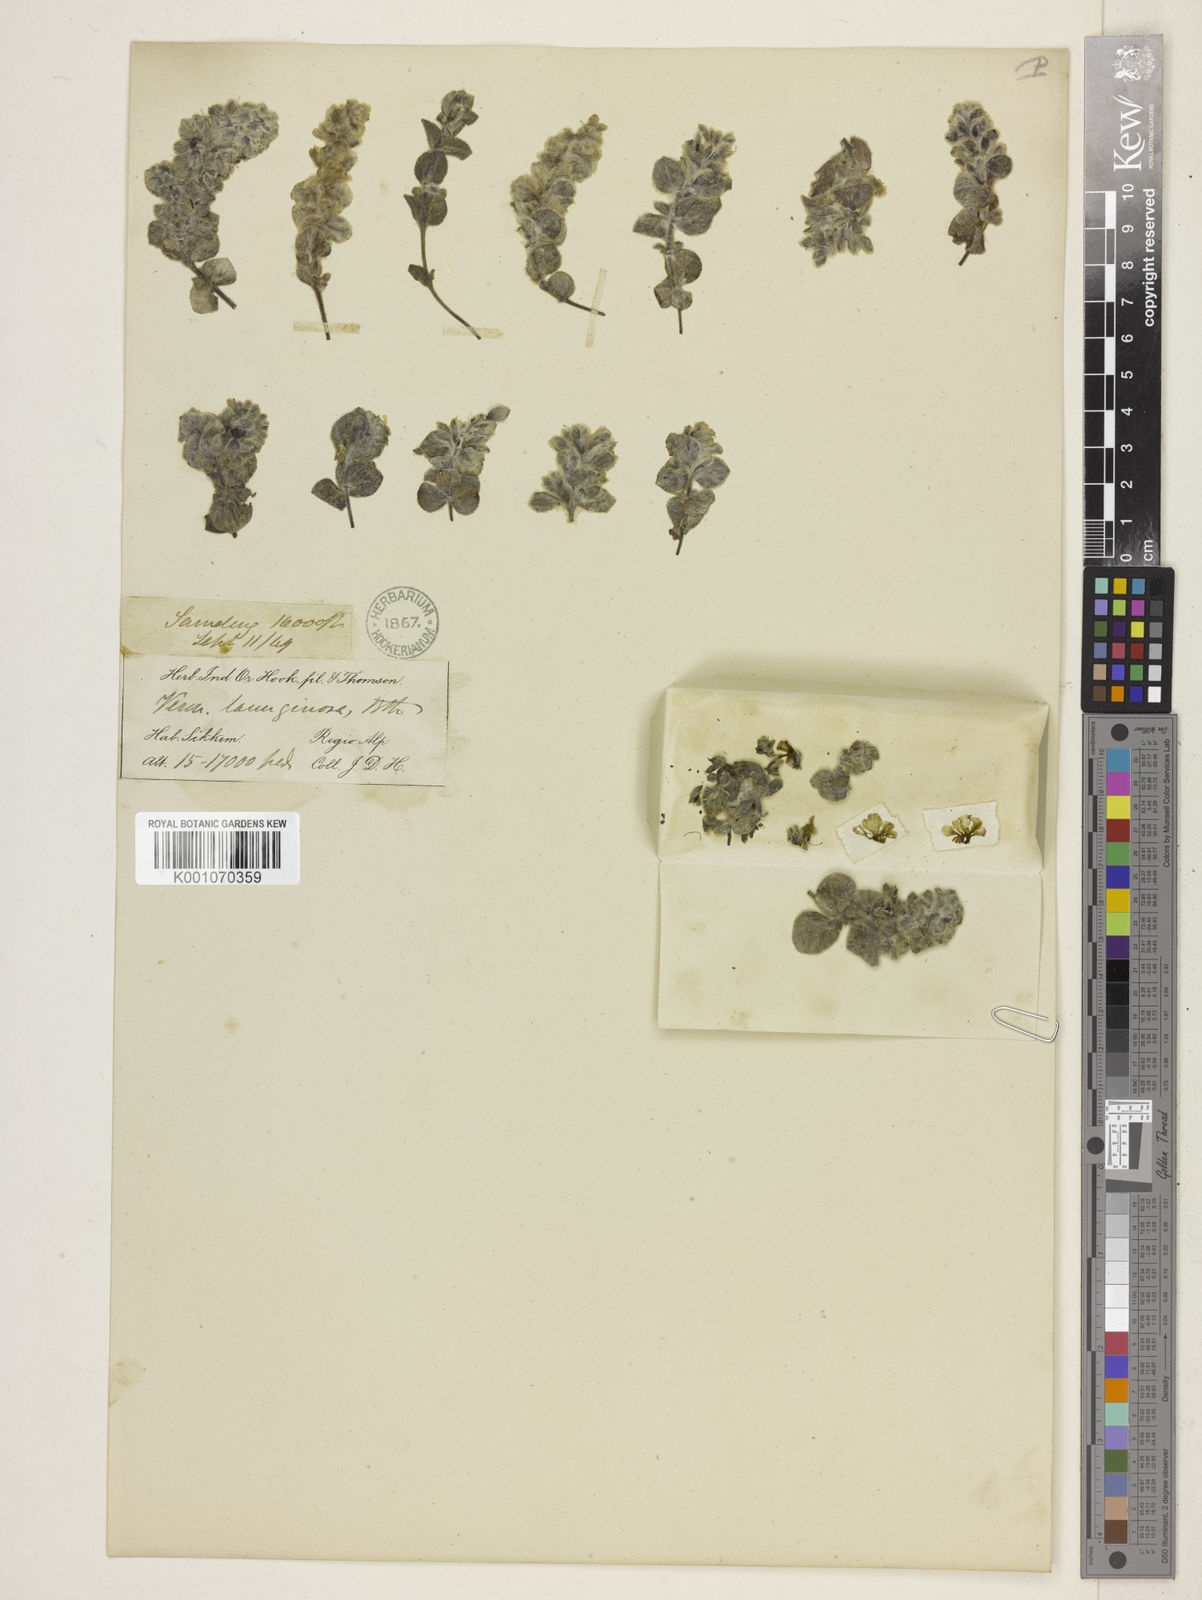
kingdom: Plantae
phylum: Tracheophyta
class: Magnoliopsida
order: Lamiales
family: Plantaginaceae
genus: Veronica
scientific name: Veronica lanuginosa
